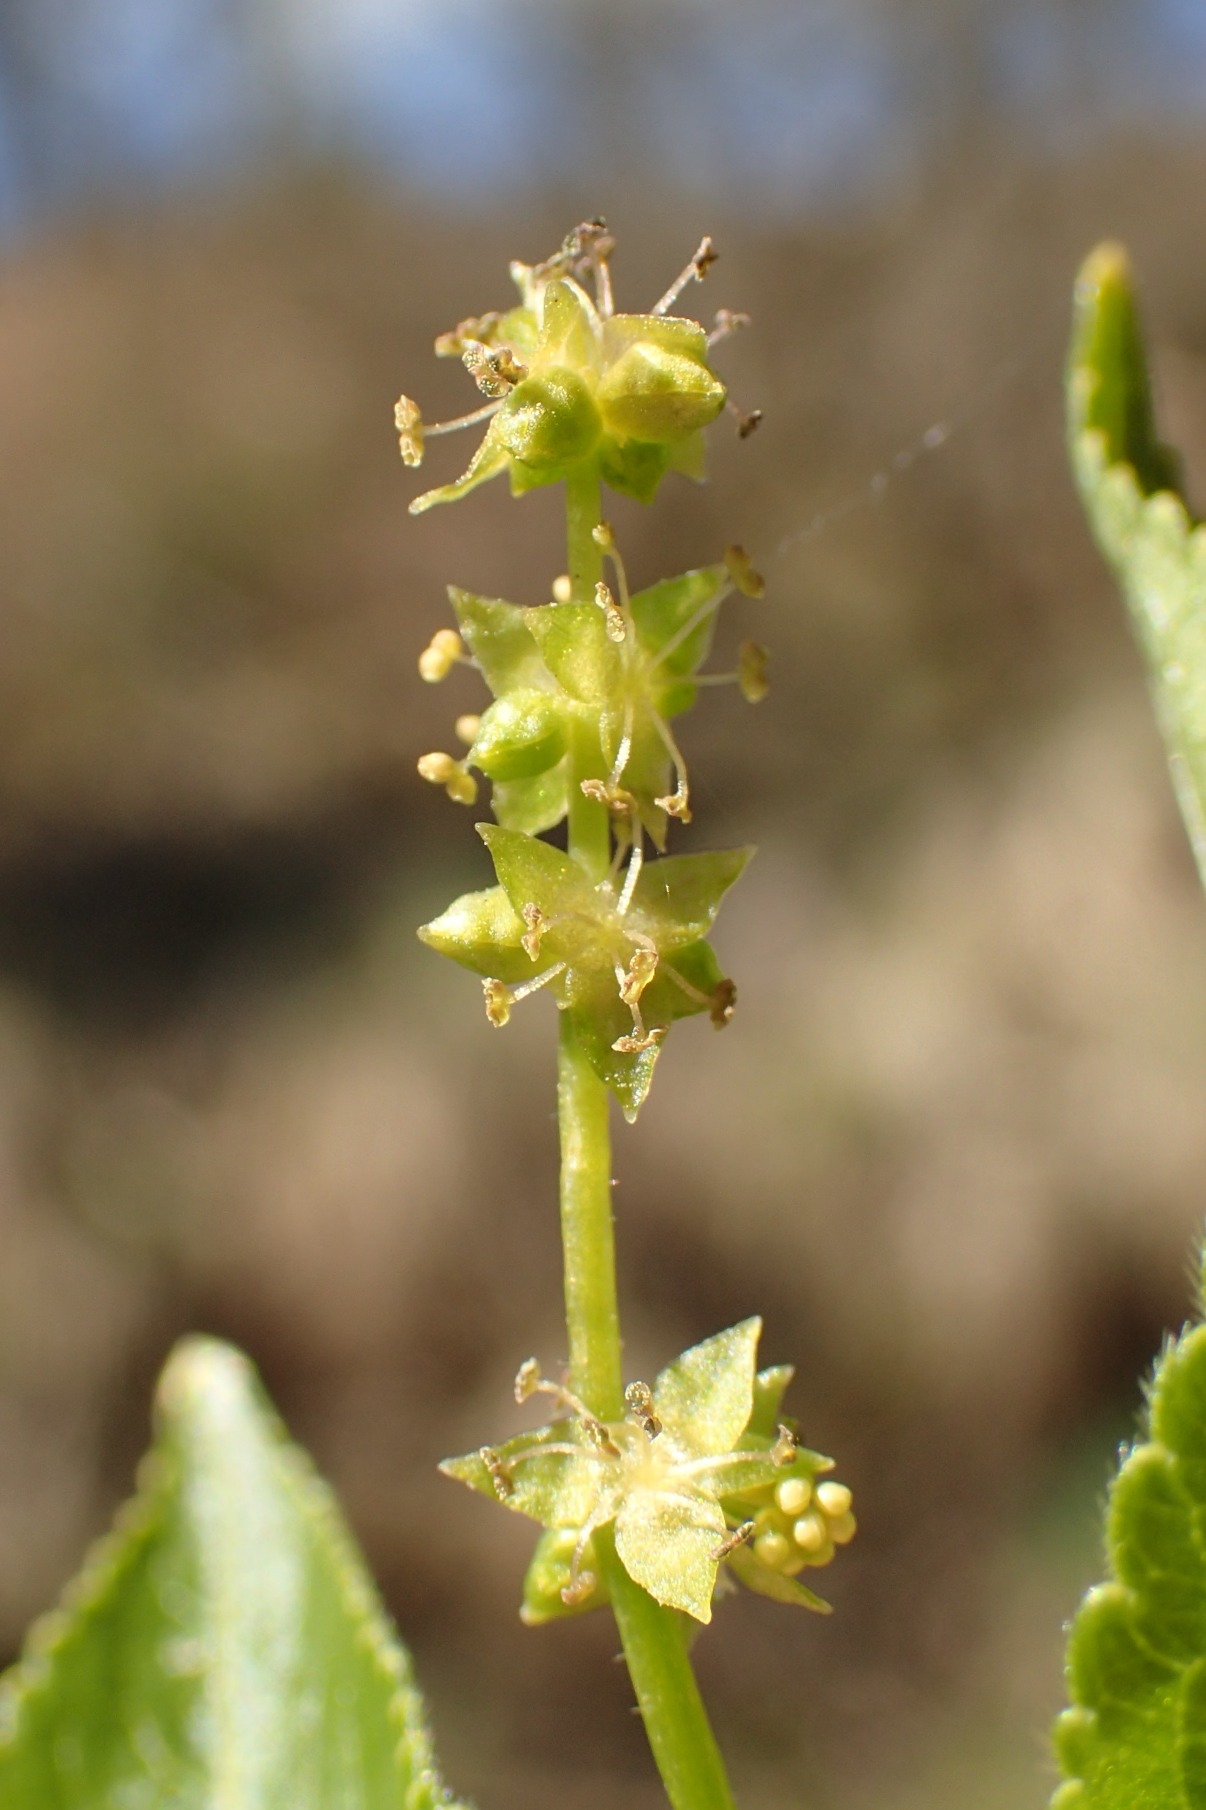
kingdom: Plantae
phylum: Tracheophyta
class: Magnoliopsida
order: Malpighiales
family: Euphorbiaceae
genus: Mercurialis
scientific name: Mercurialis perennis
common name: Almindelig bingelurt
